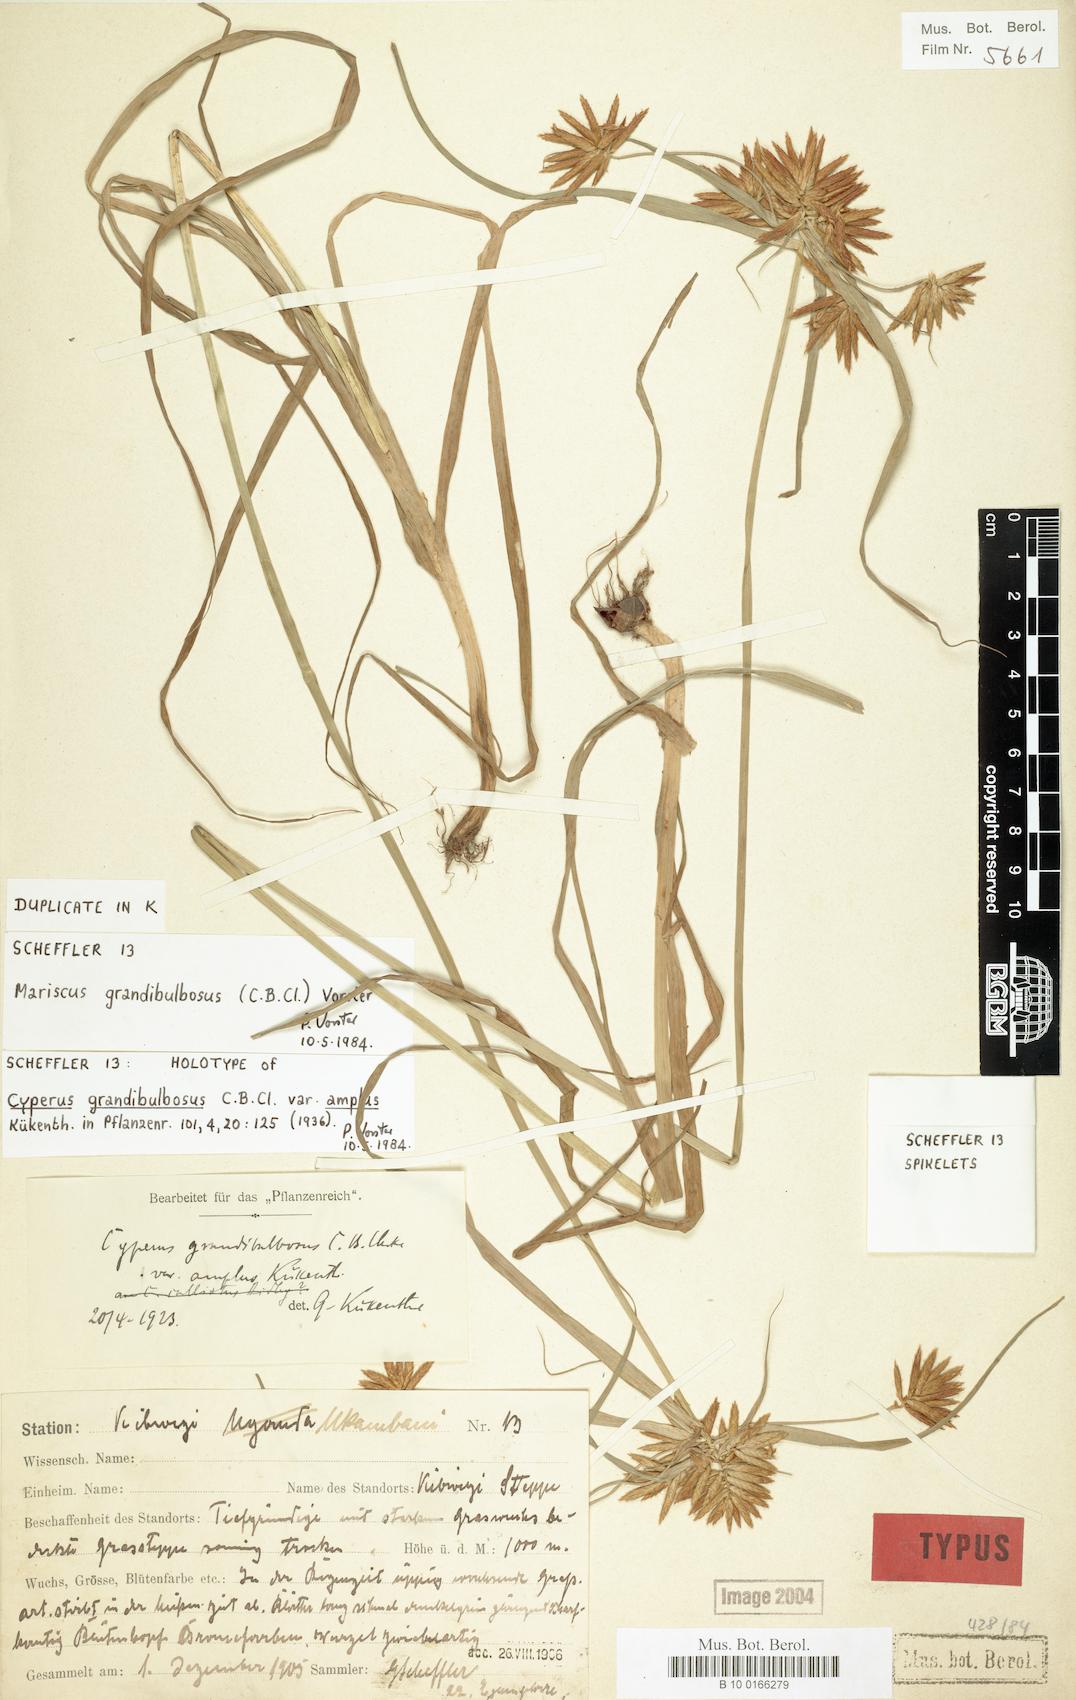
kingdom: Plantae
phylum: Tracheophyta
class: Liliopsida
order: Poales
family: Cyperaceae
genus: Cyperus
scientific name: Cyperus grandibulbosus
